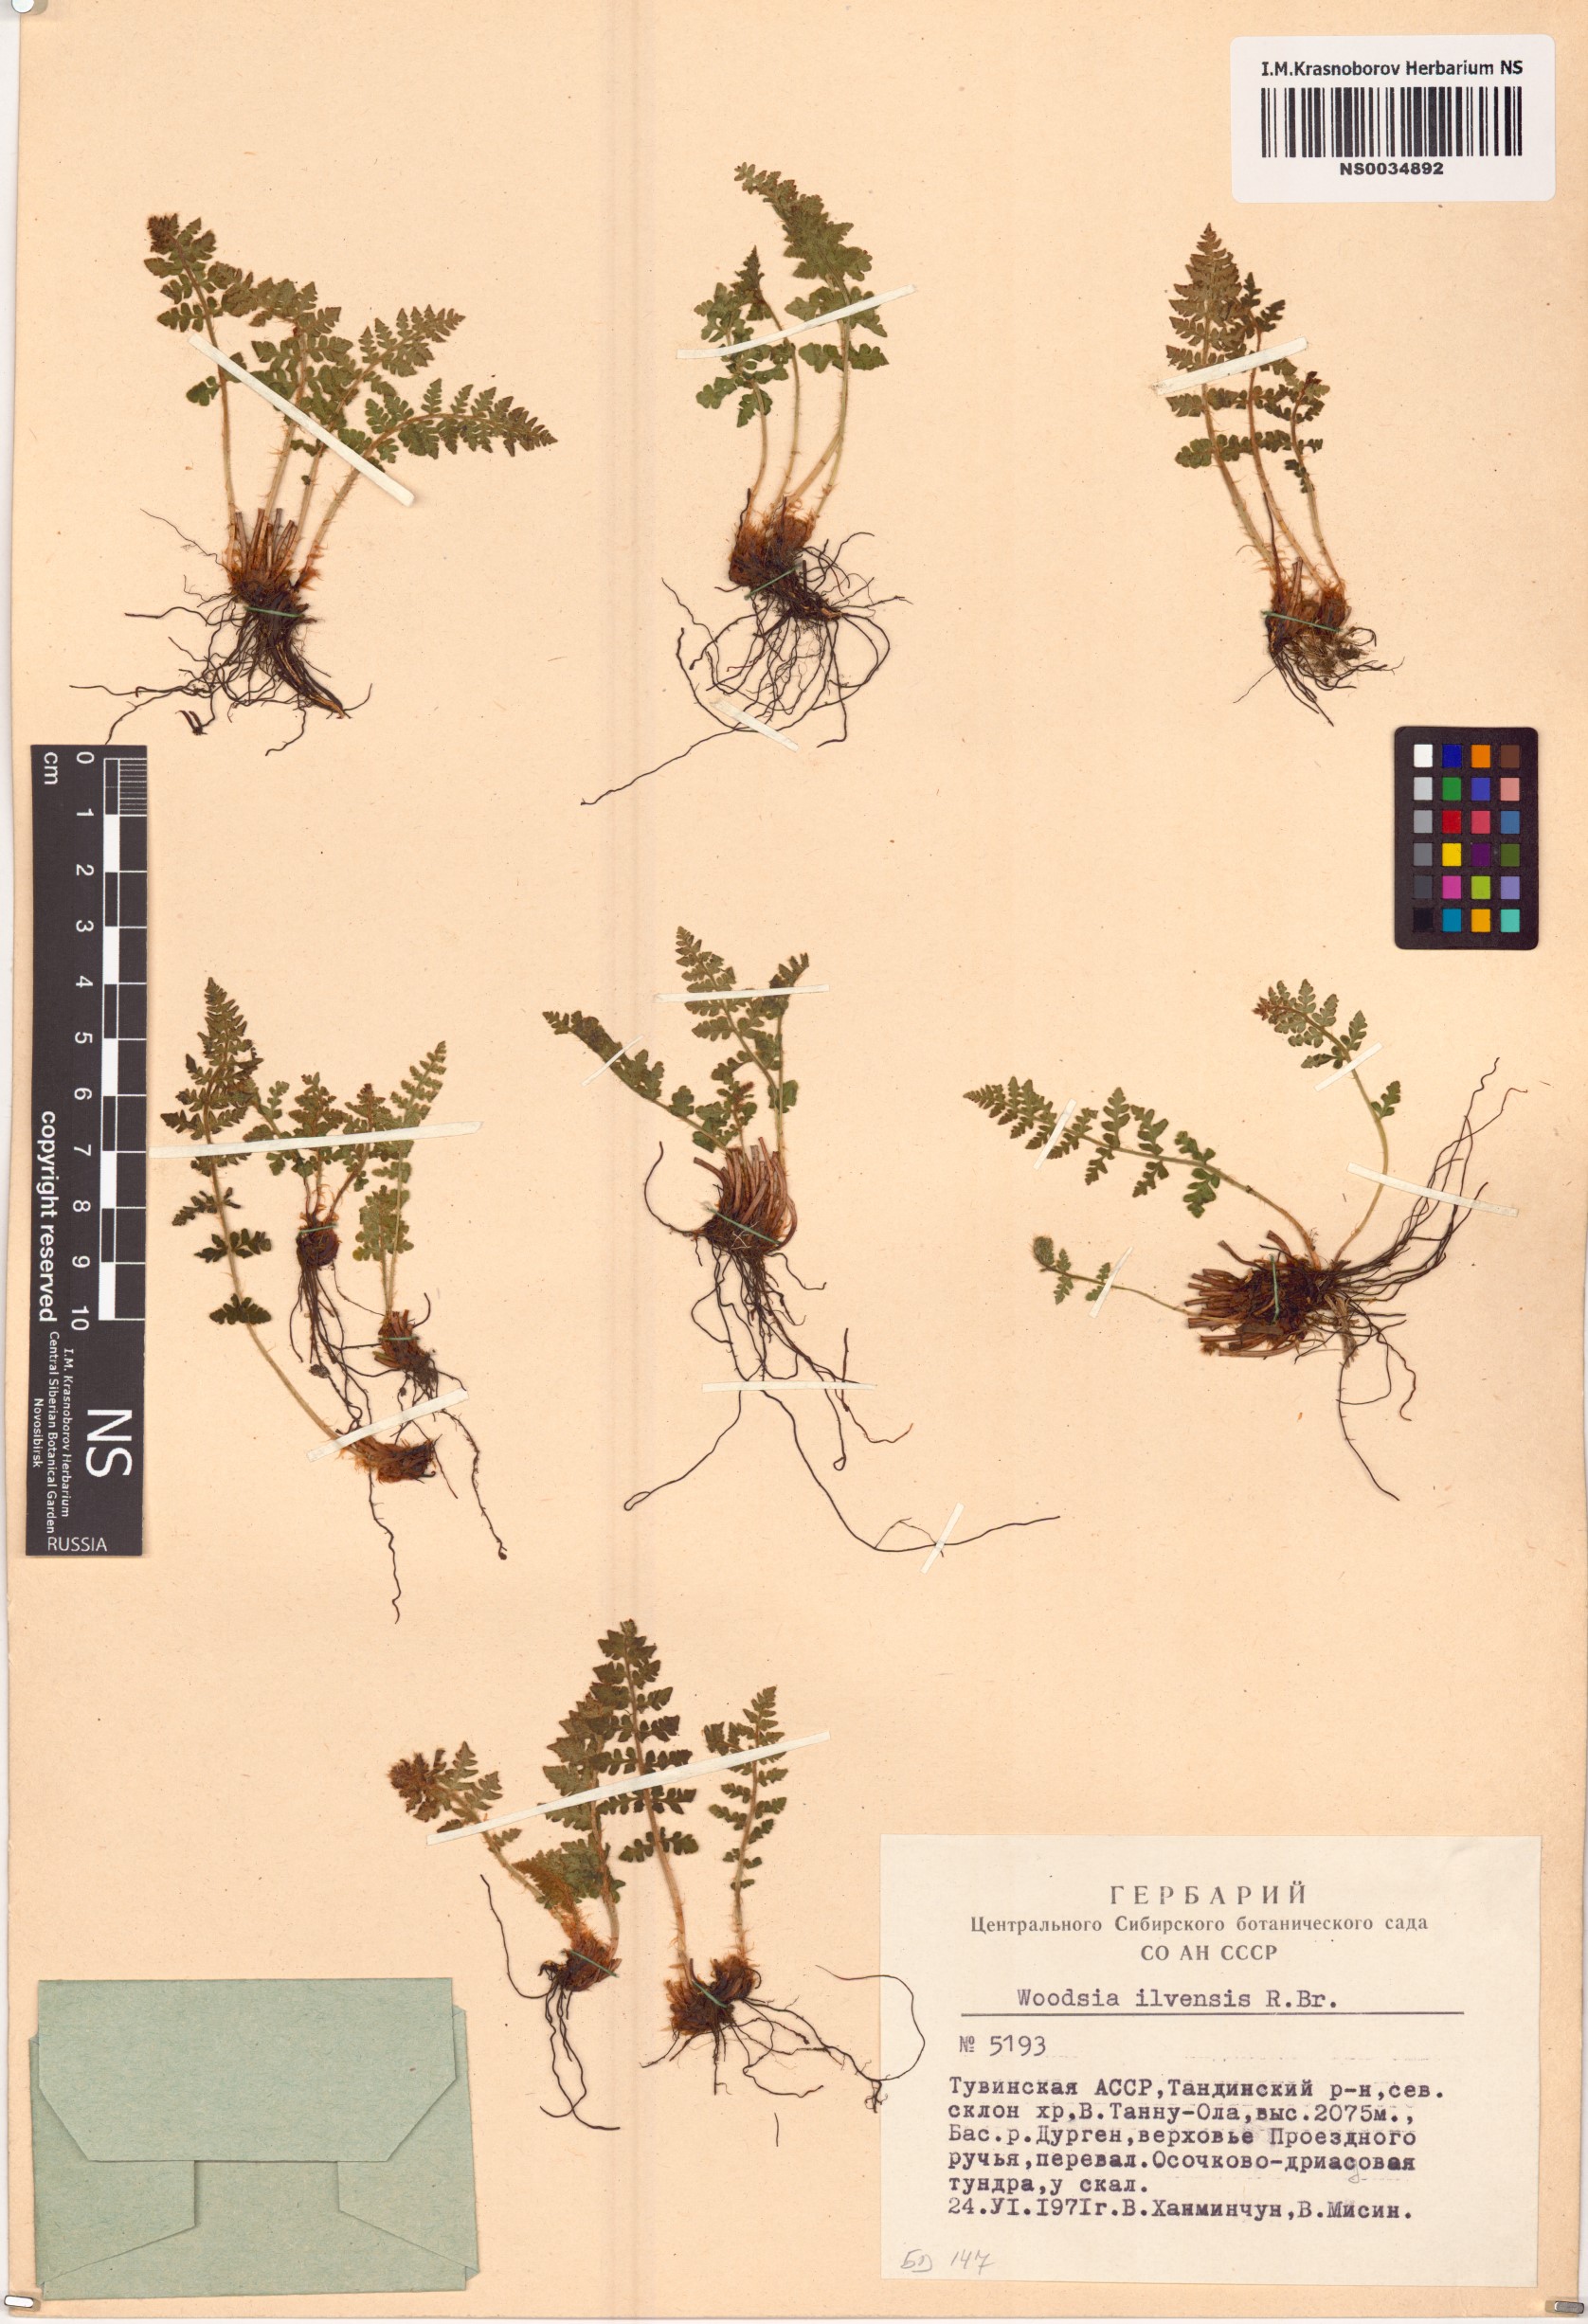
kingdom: Plantae
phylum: Tracheophyta
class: Polypodiopsida
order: Polypodiales
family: Woodsiaceae
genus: Woodsia
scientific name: Woodsia ilvensis
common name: Fragrant woodsia
